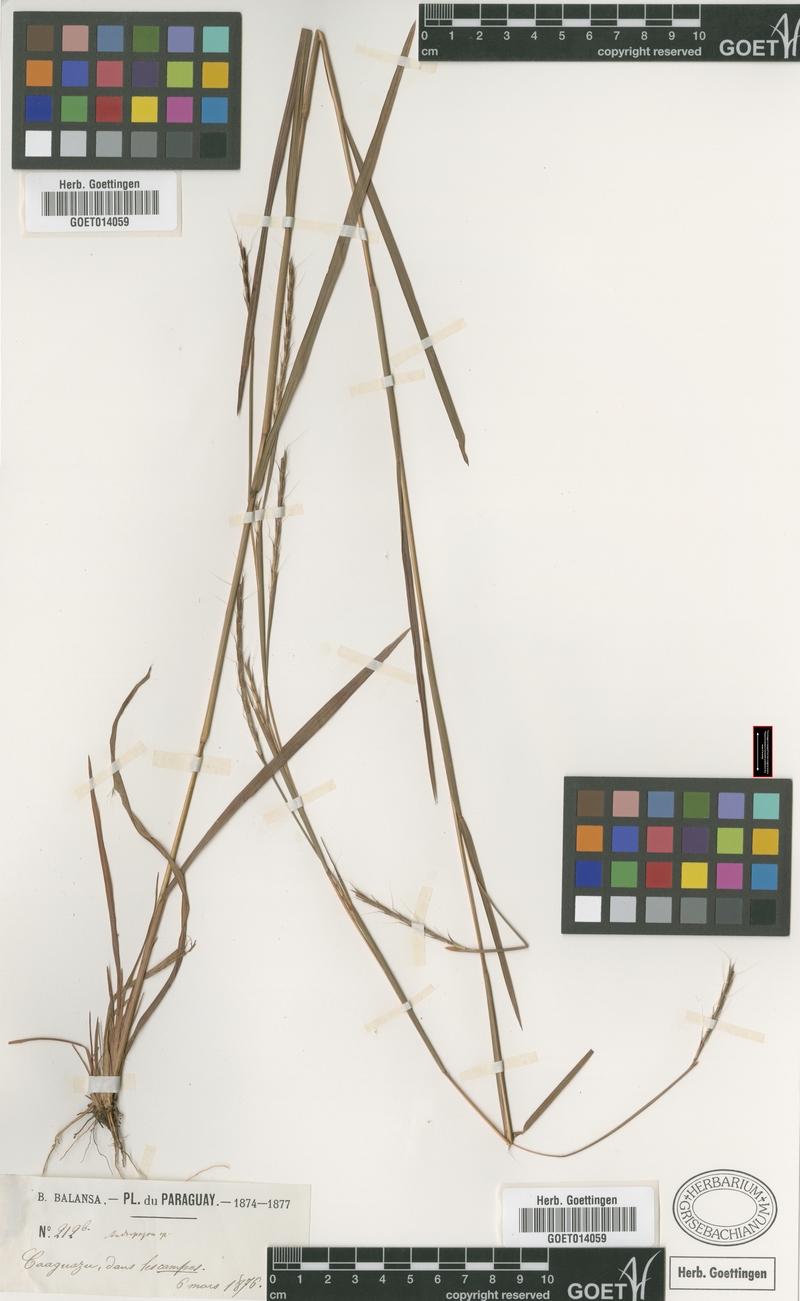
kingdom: Plantae
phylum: Tracheophyta
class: Liliopsida
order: Poales
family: Poaceae
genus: Schizachyrium
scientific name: Schizachyrium sanguineum
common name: Crimson bluestem
